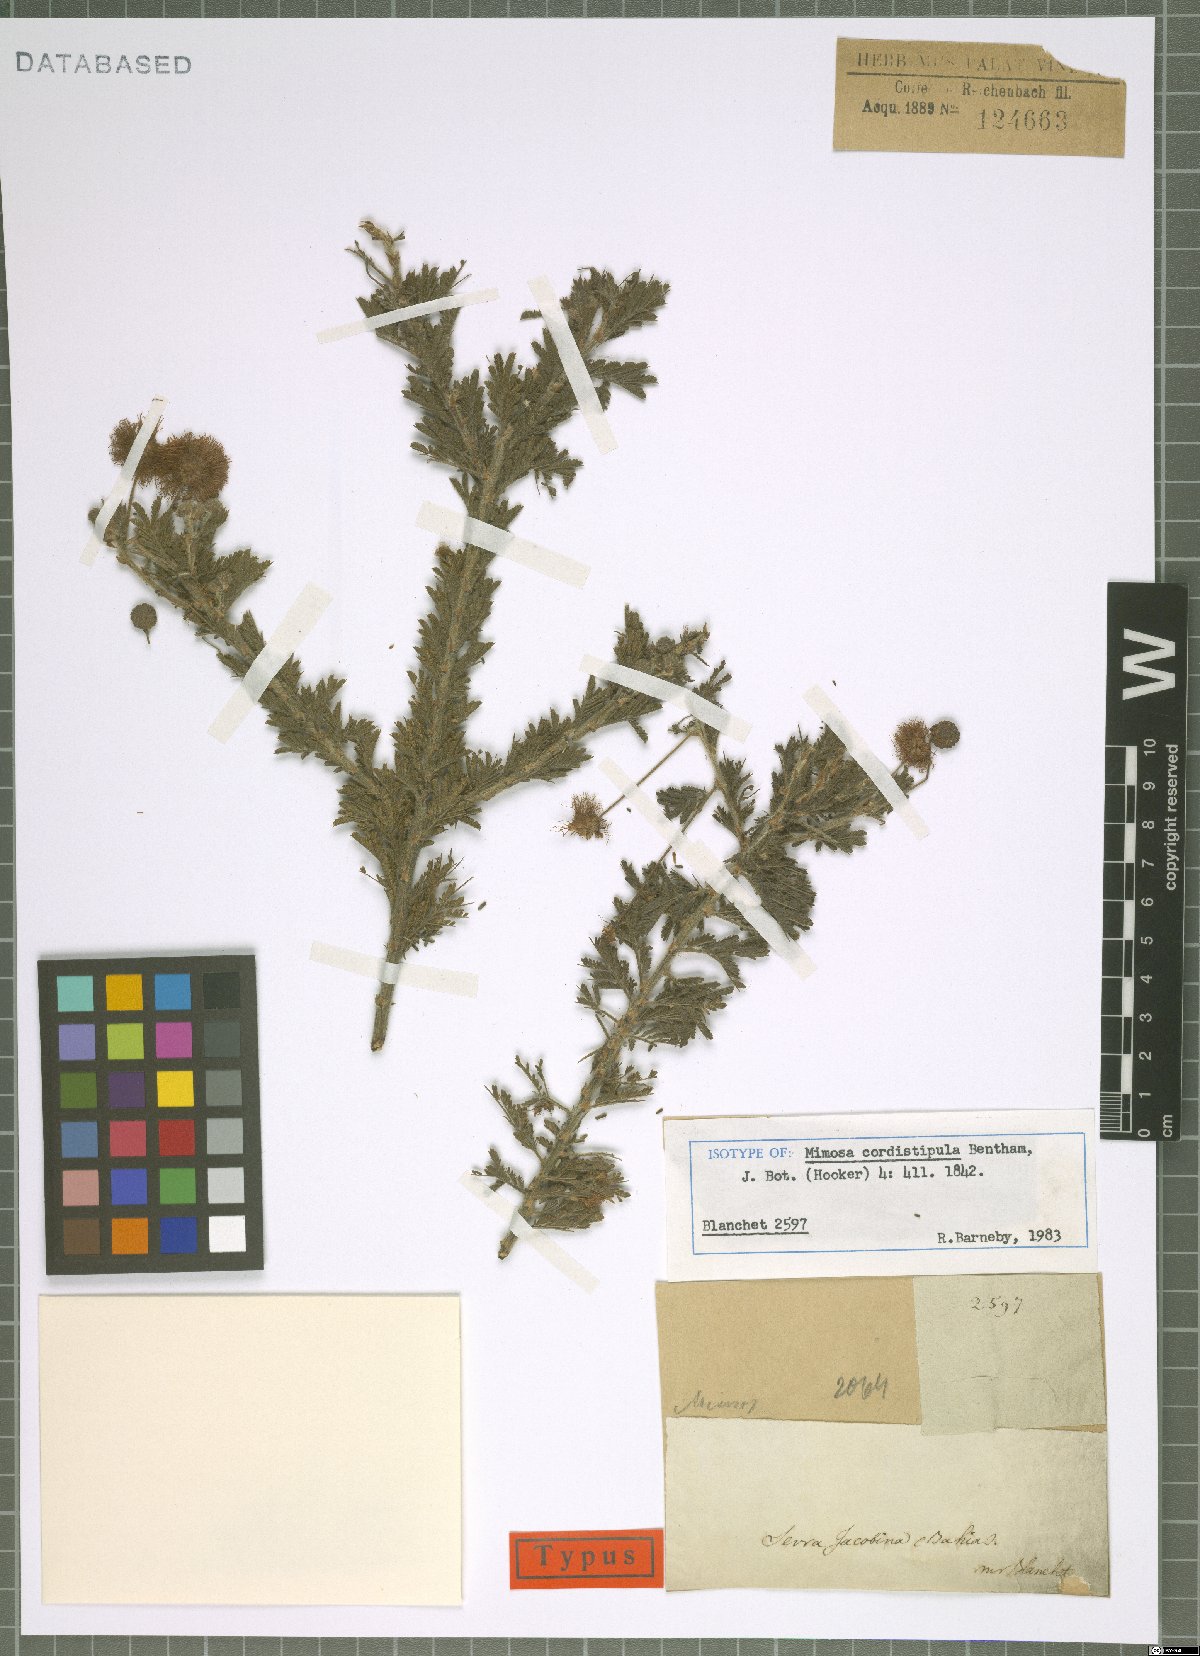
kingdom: Plantae
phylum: Tracheophyta
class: Magnoliopsida
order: Fabales
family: Fabaceae
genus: Mimosa
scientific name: Mimosa cordistipula
